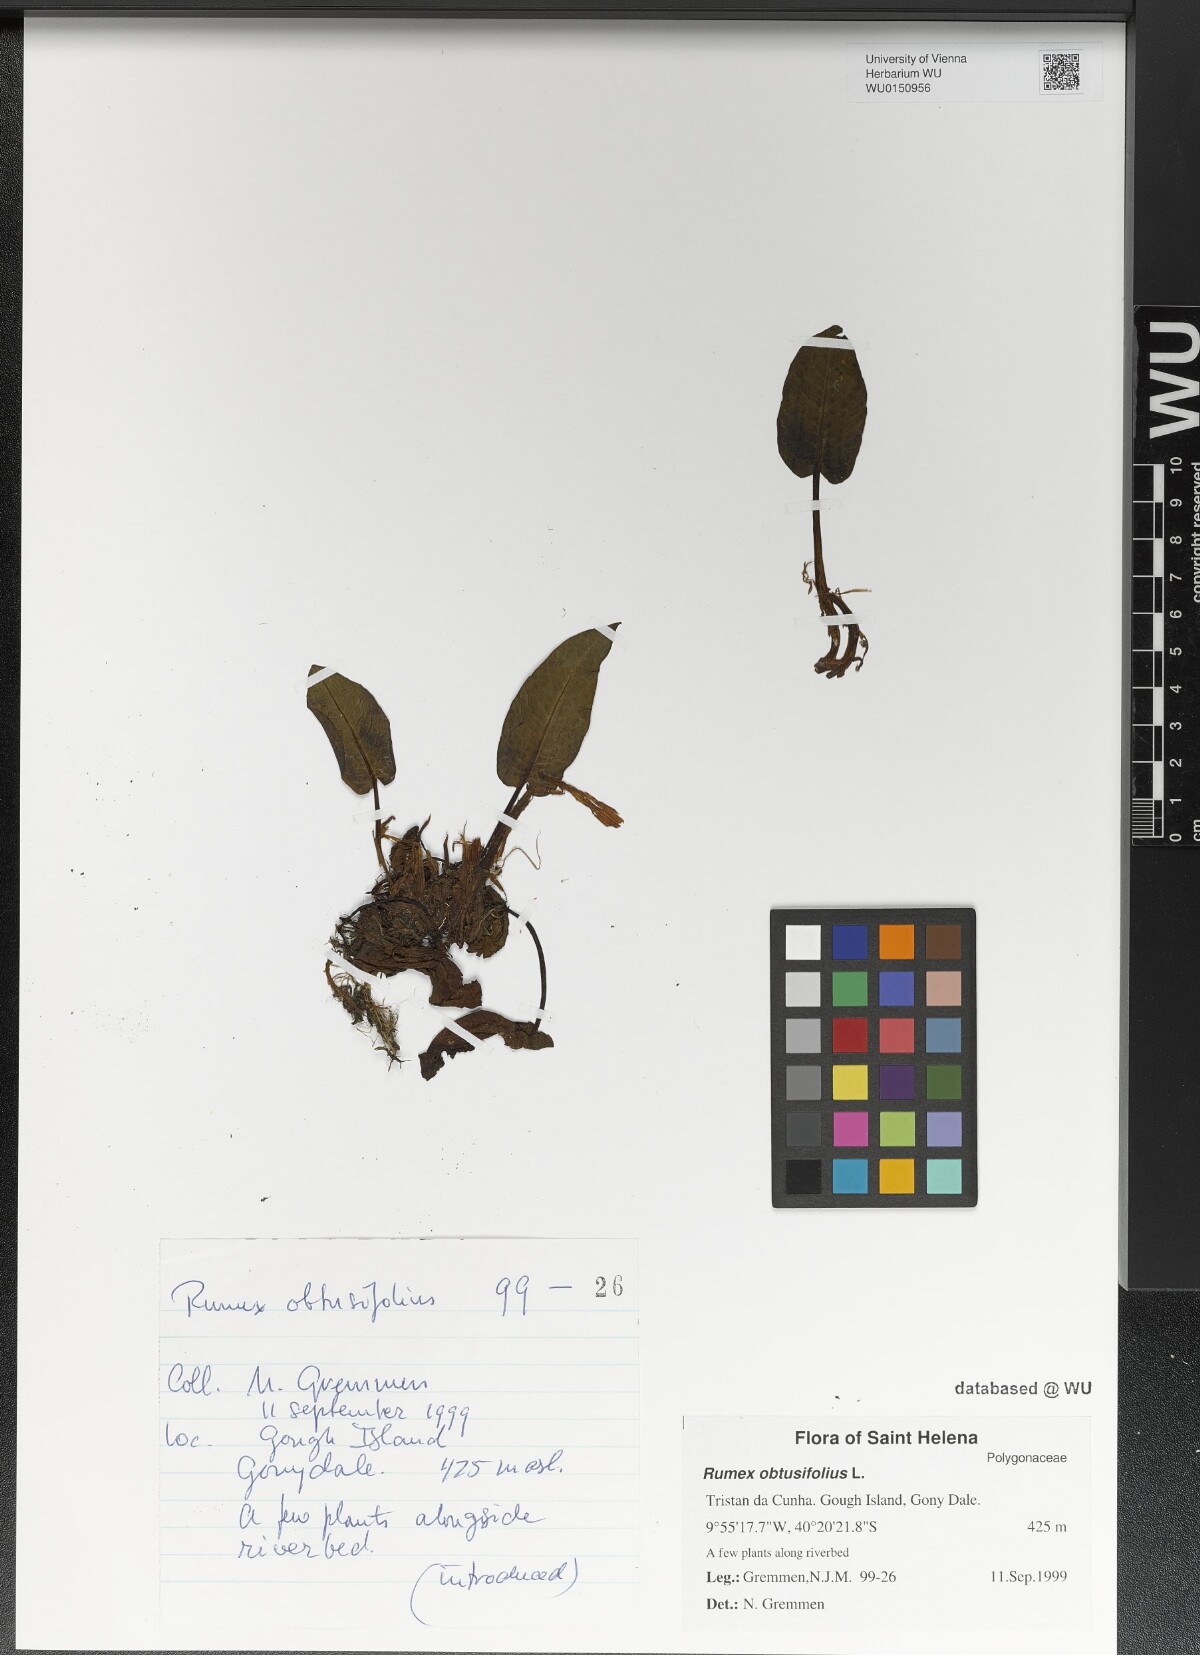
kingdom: Plantae
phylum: Tracheophyta
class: Magnoliopsida
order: Caryophyllales
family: Polygonaceae
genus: Rumex
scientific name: Rumex obtusifolius
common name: Bitter dock
